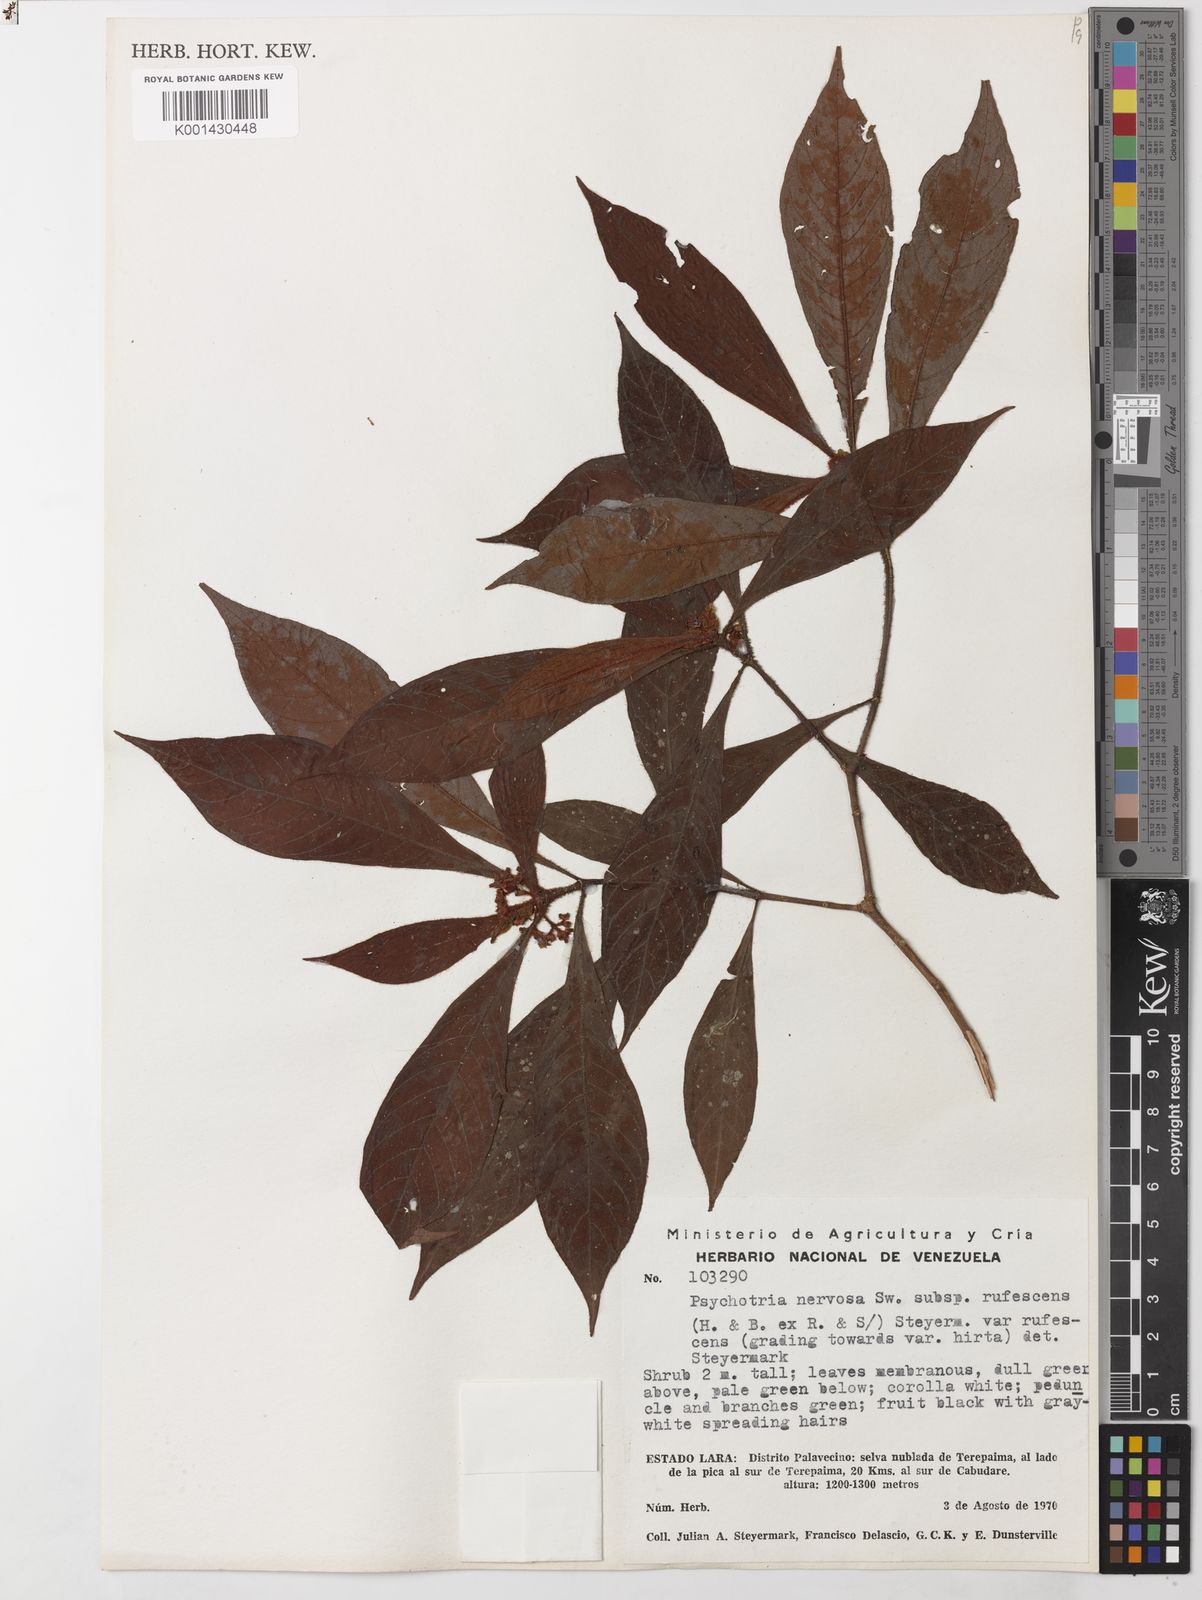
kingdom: Plantae
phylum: Tracheophyta
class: Magnoliopsida
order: Gentianales
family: Rubiaceae
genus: Psychotria
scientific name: Psychotria nervosa
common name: Bastard cankerberry
